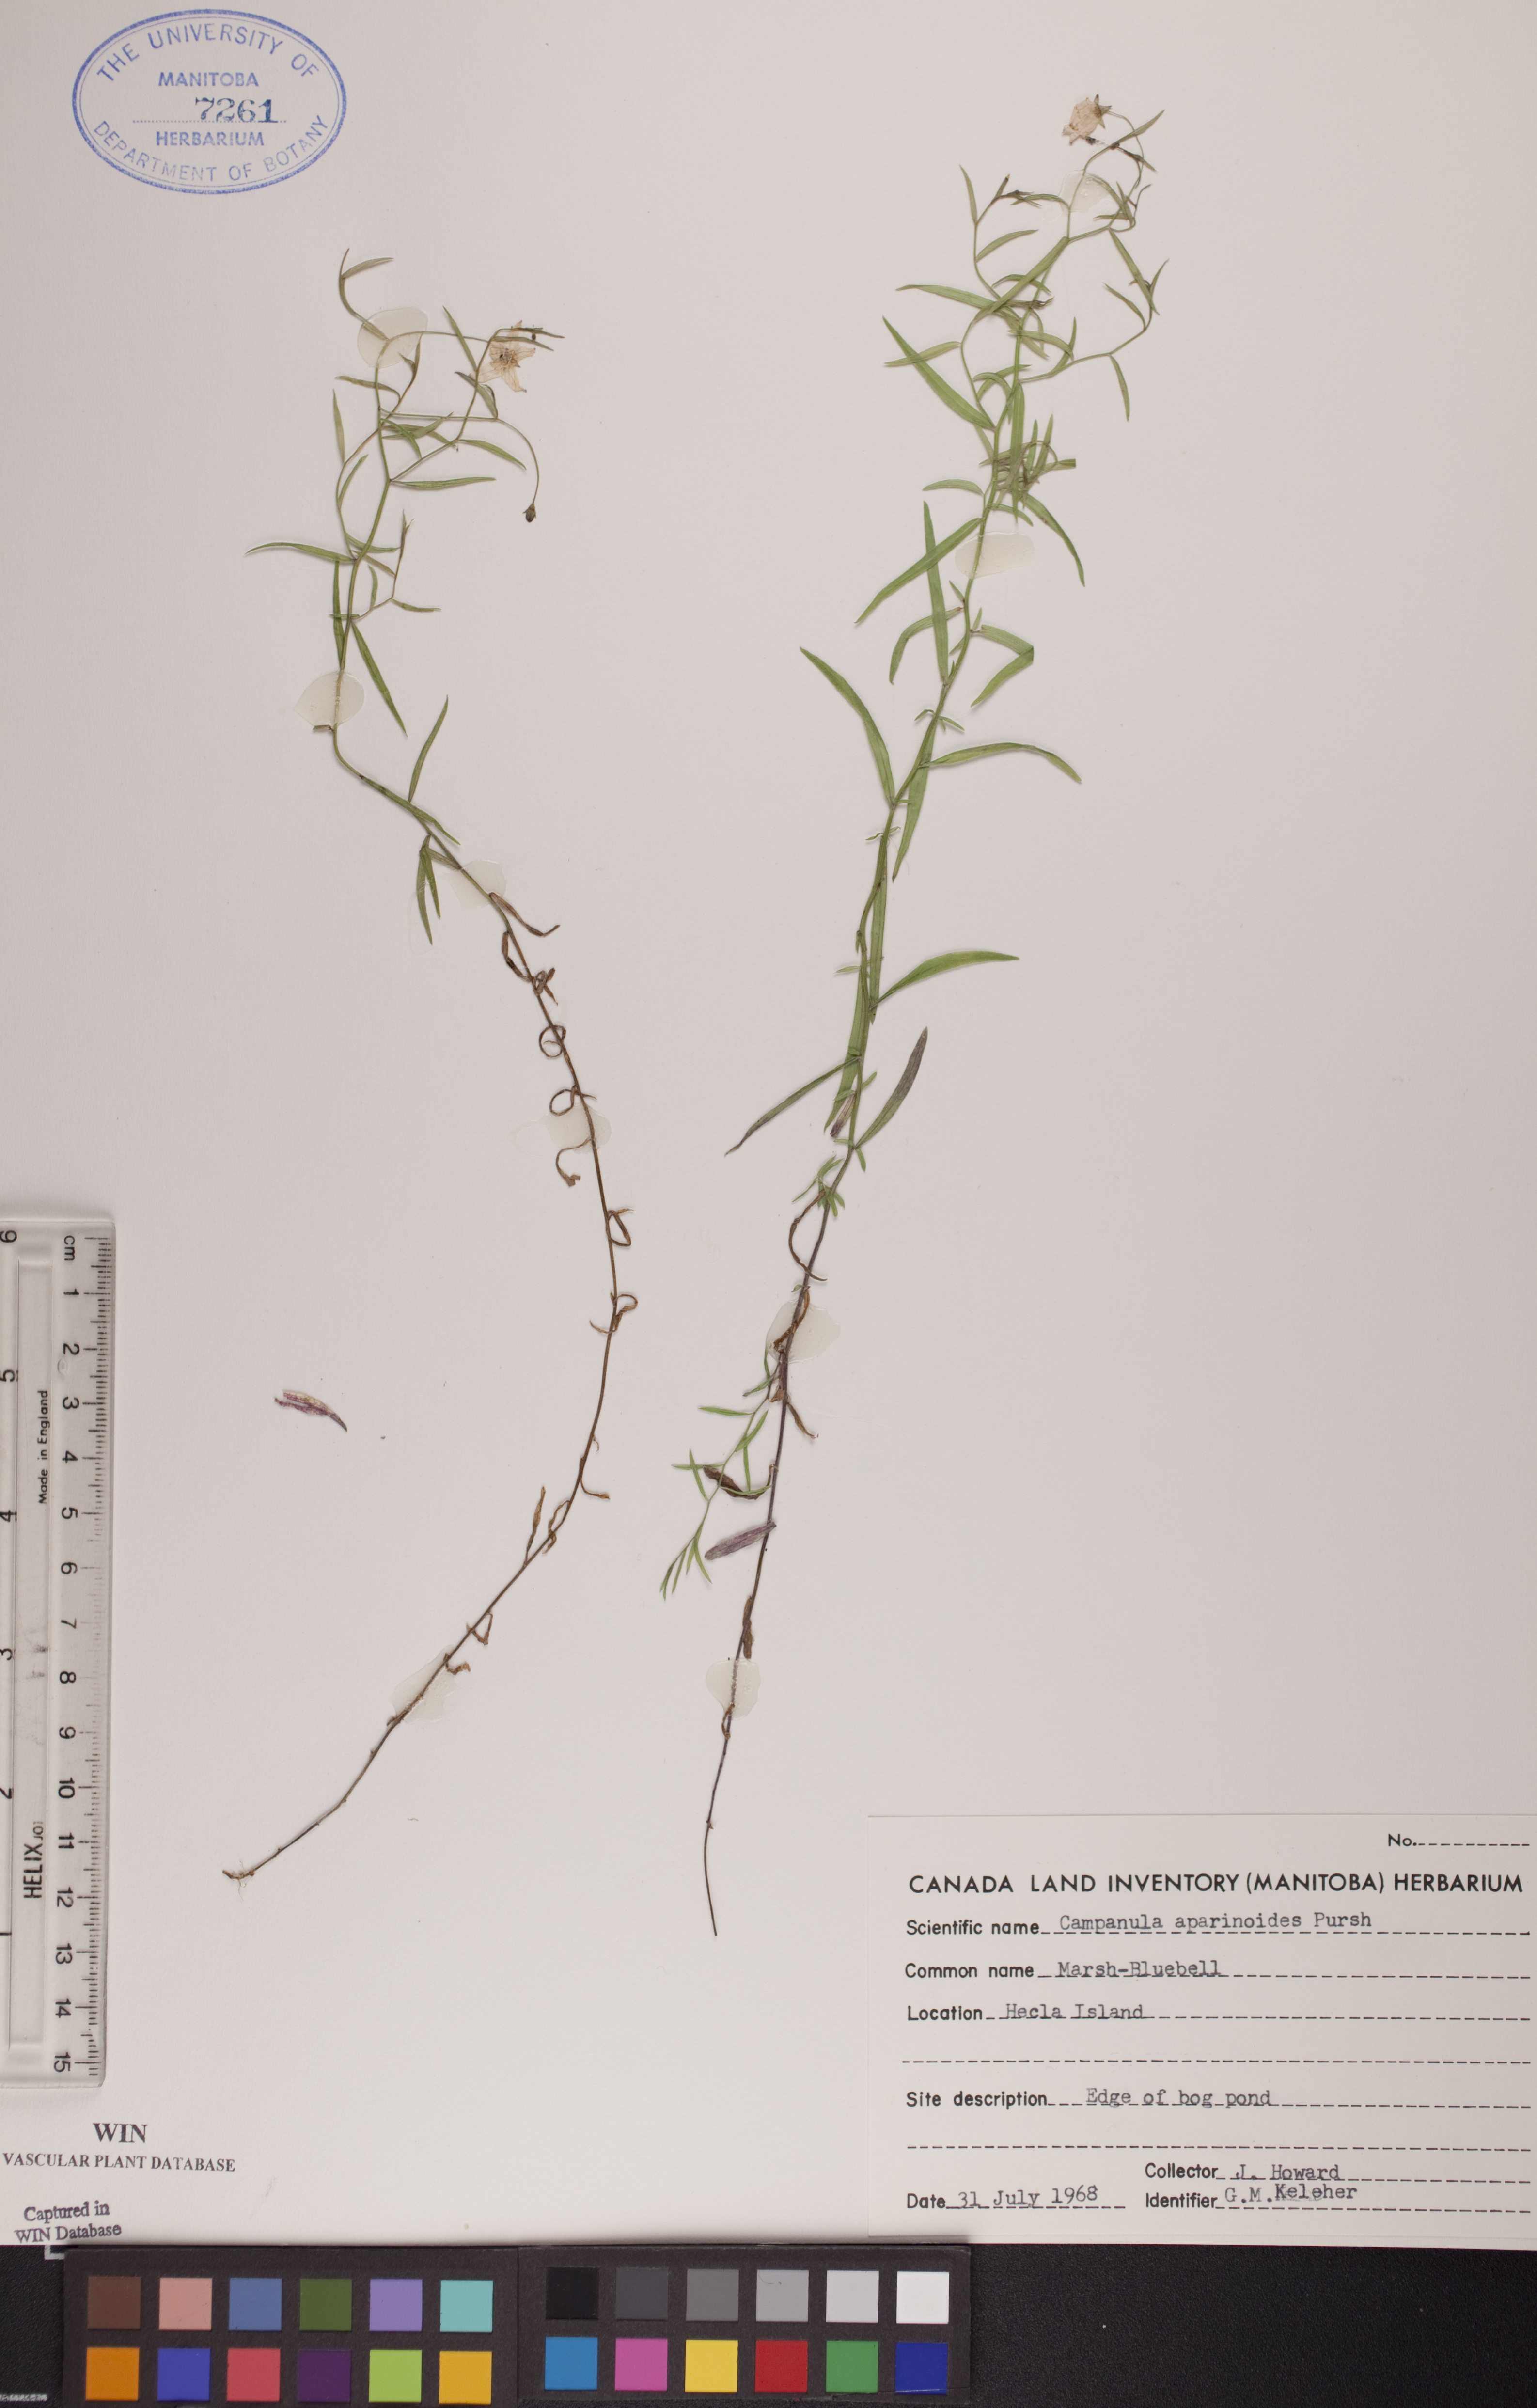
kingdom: Plantae
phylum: Tracheophyta
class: Magnoliopsida
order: Asterales
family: Campanulaceae
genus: Palustricodon
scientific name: Palustricodon aparinoides
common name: Bedstraw bellflower
